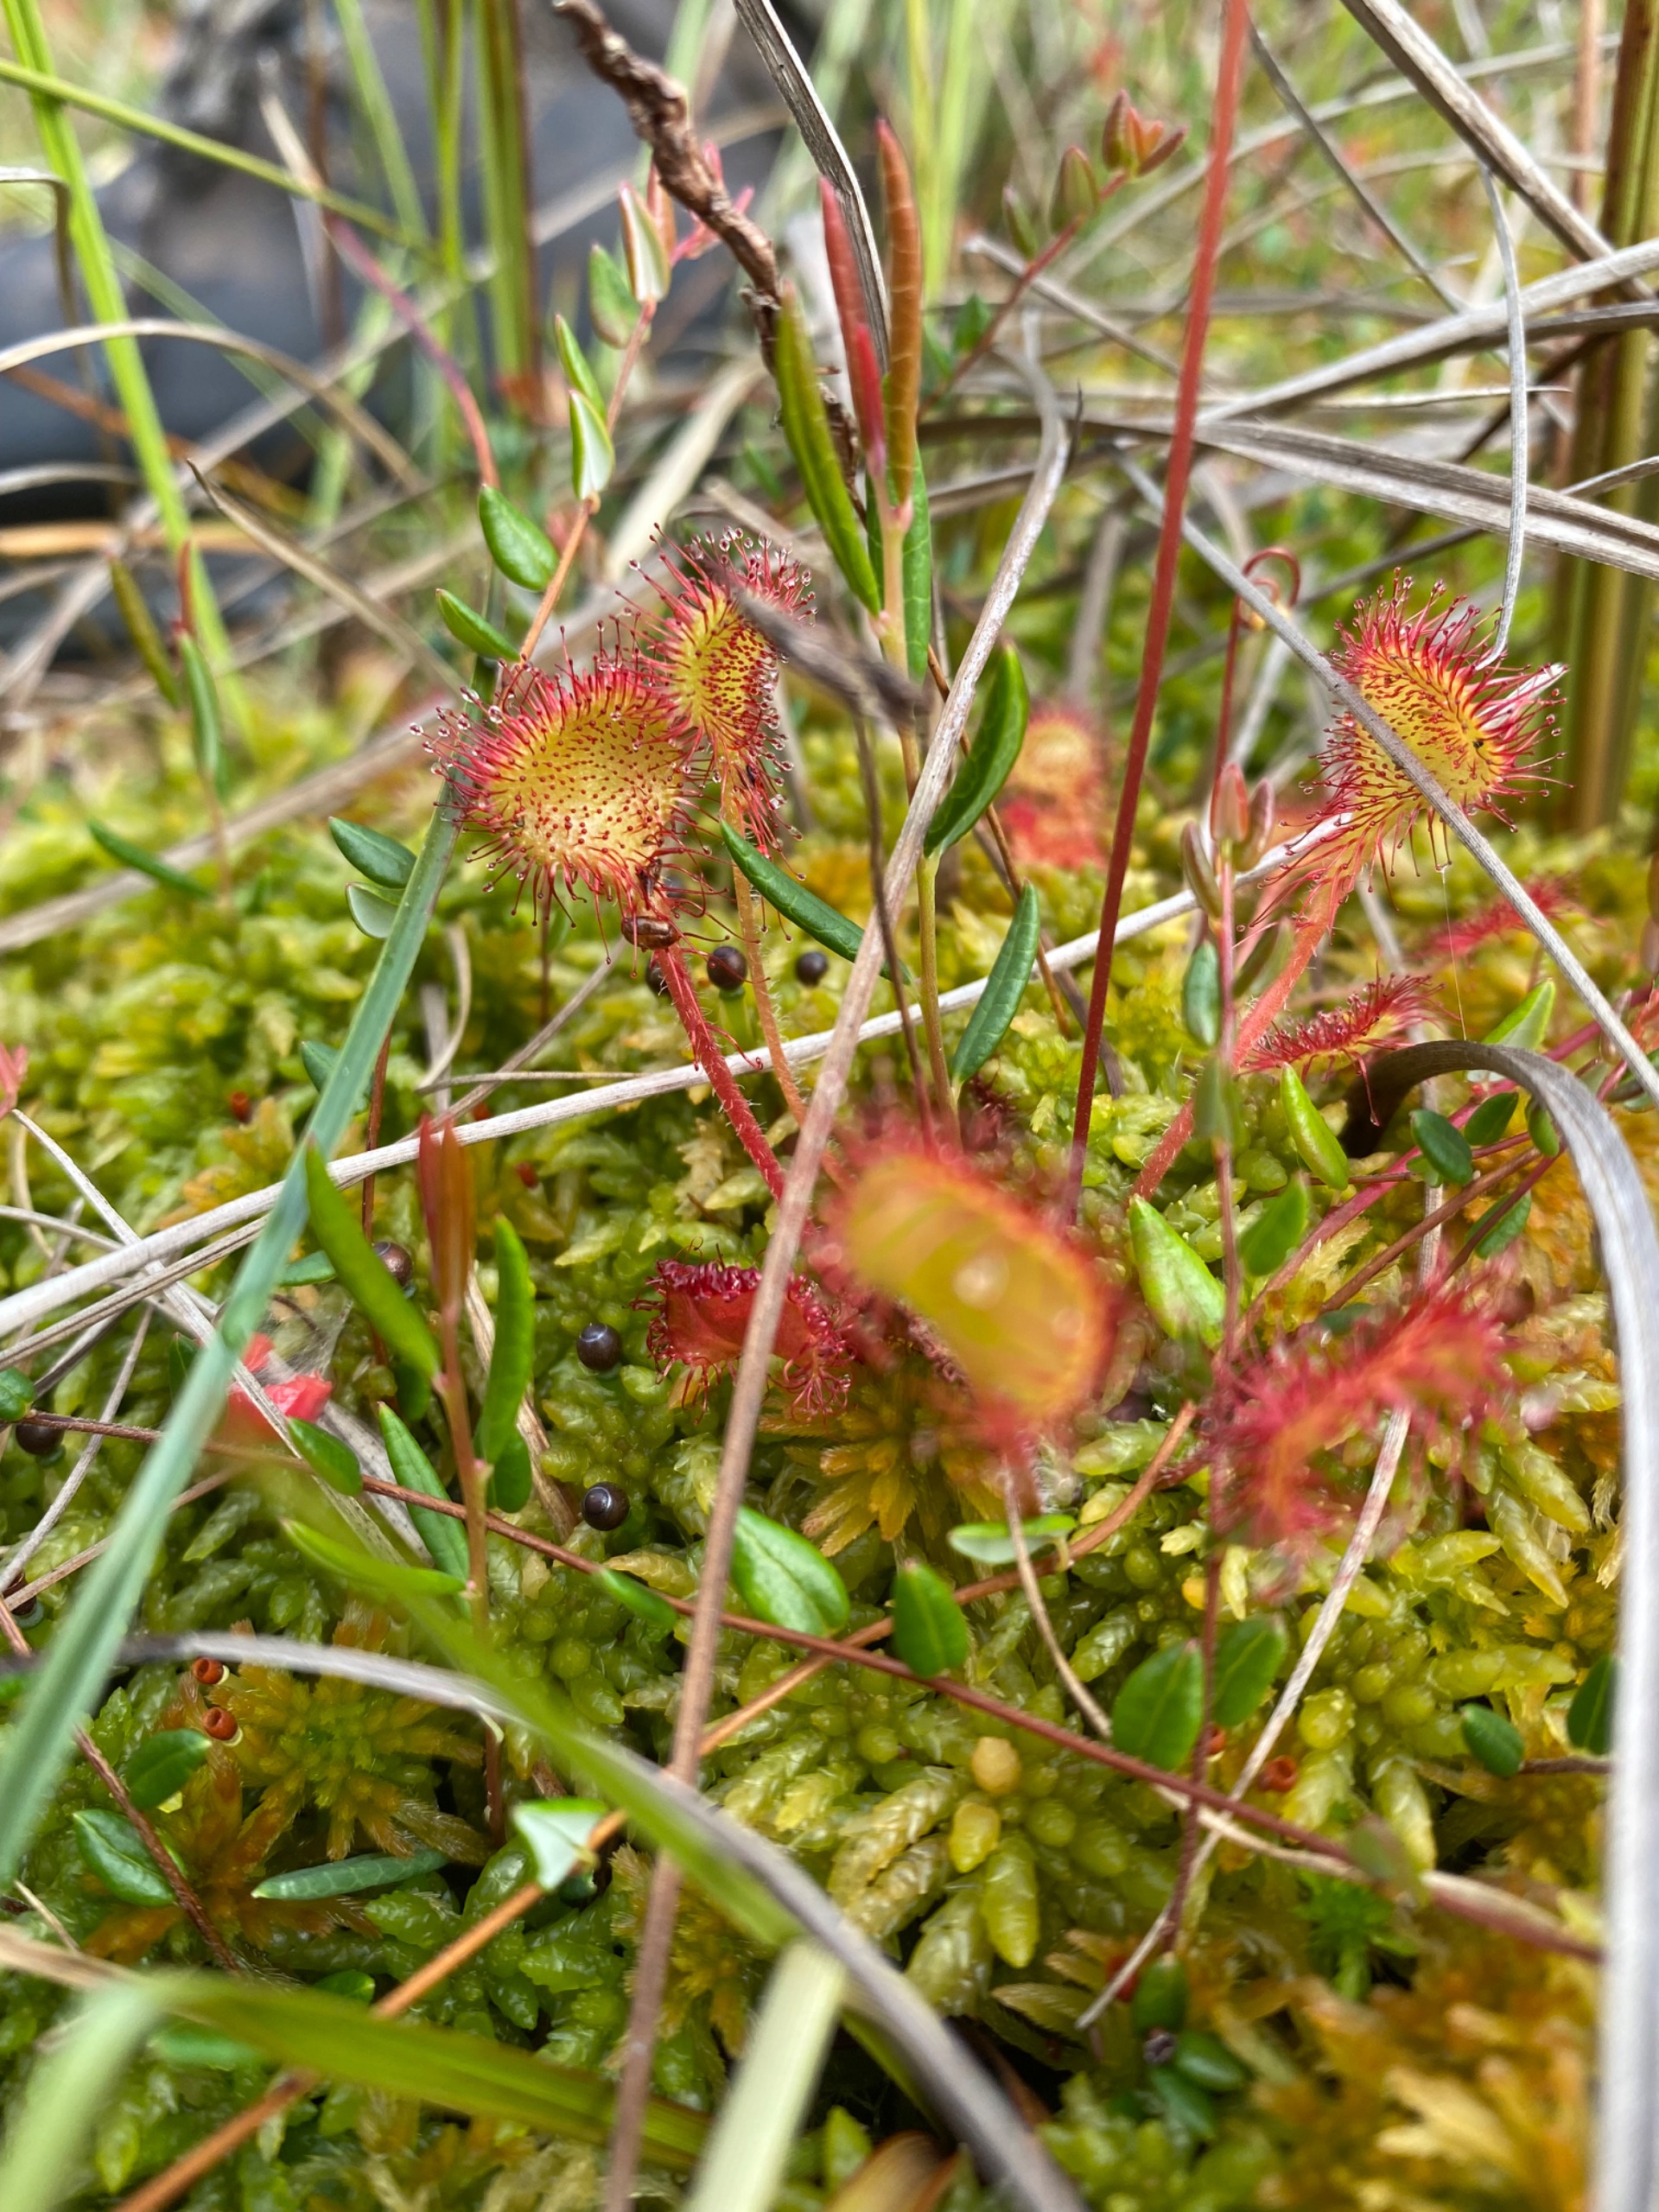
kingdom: Plantae
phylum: Tracheophyta
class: Magnoliopsida
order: Caryophyllales
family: Droseraceae
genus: Drosera
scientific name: Drosera rotundifolia
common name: Rundbladet soldug
